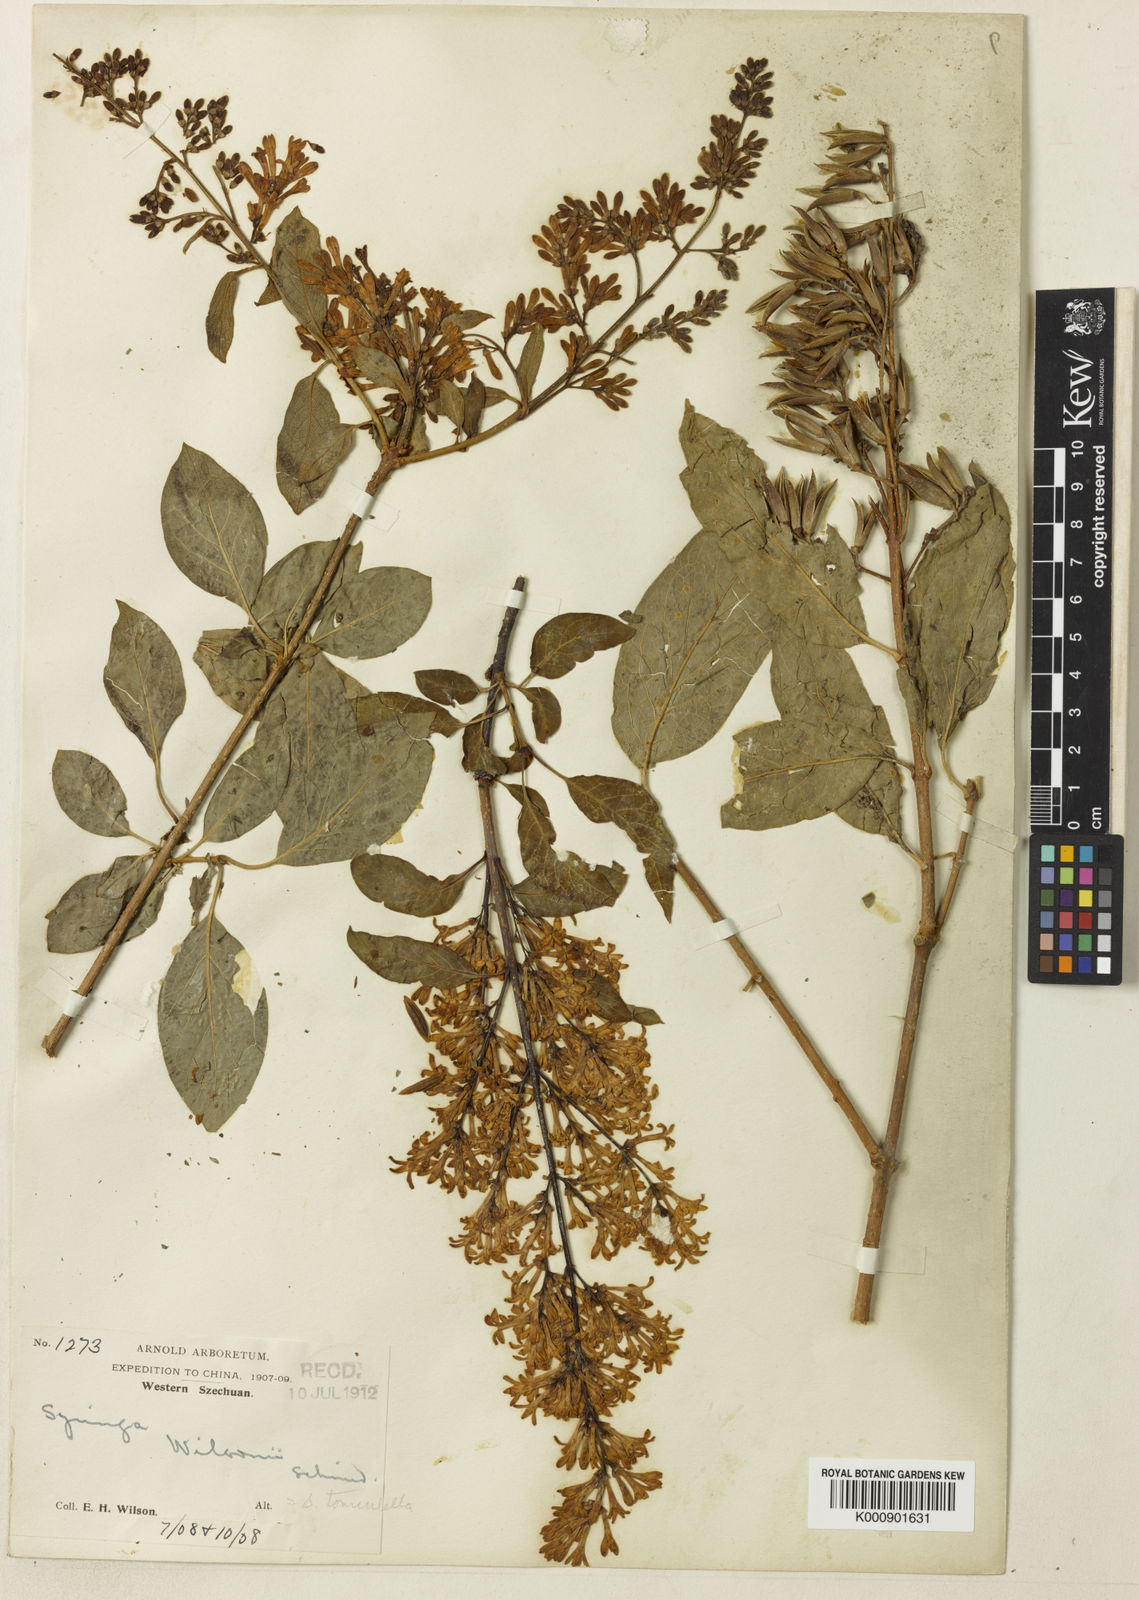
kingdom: Plantae
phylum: Tracheophyta
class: Magnoliopsida
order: Lamiales
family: Oleaceae
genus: Syringa
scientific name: Syringa tomentella
